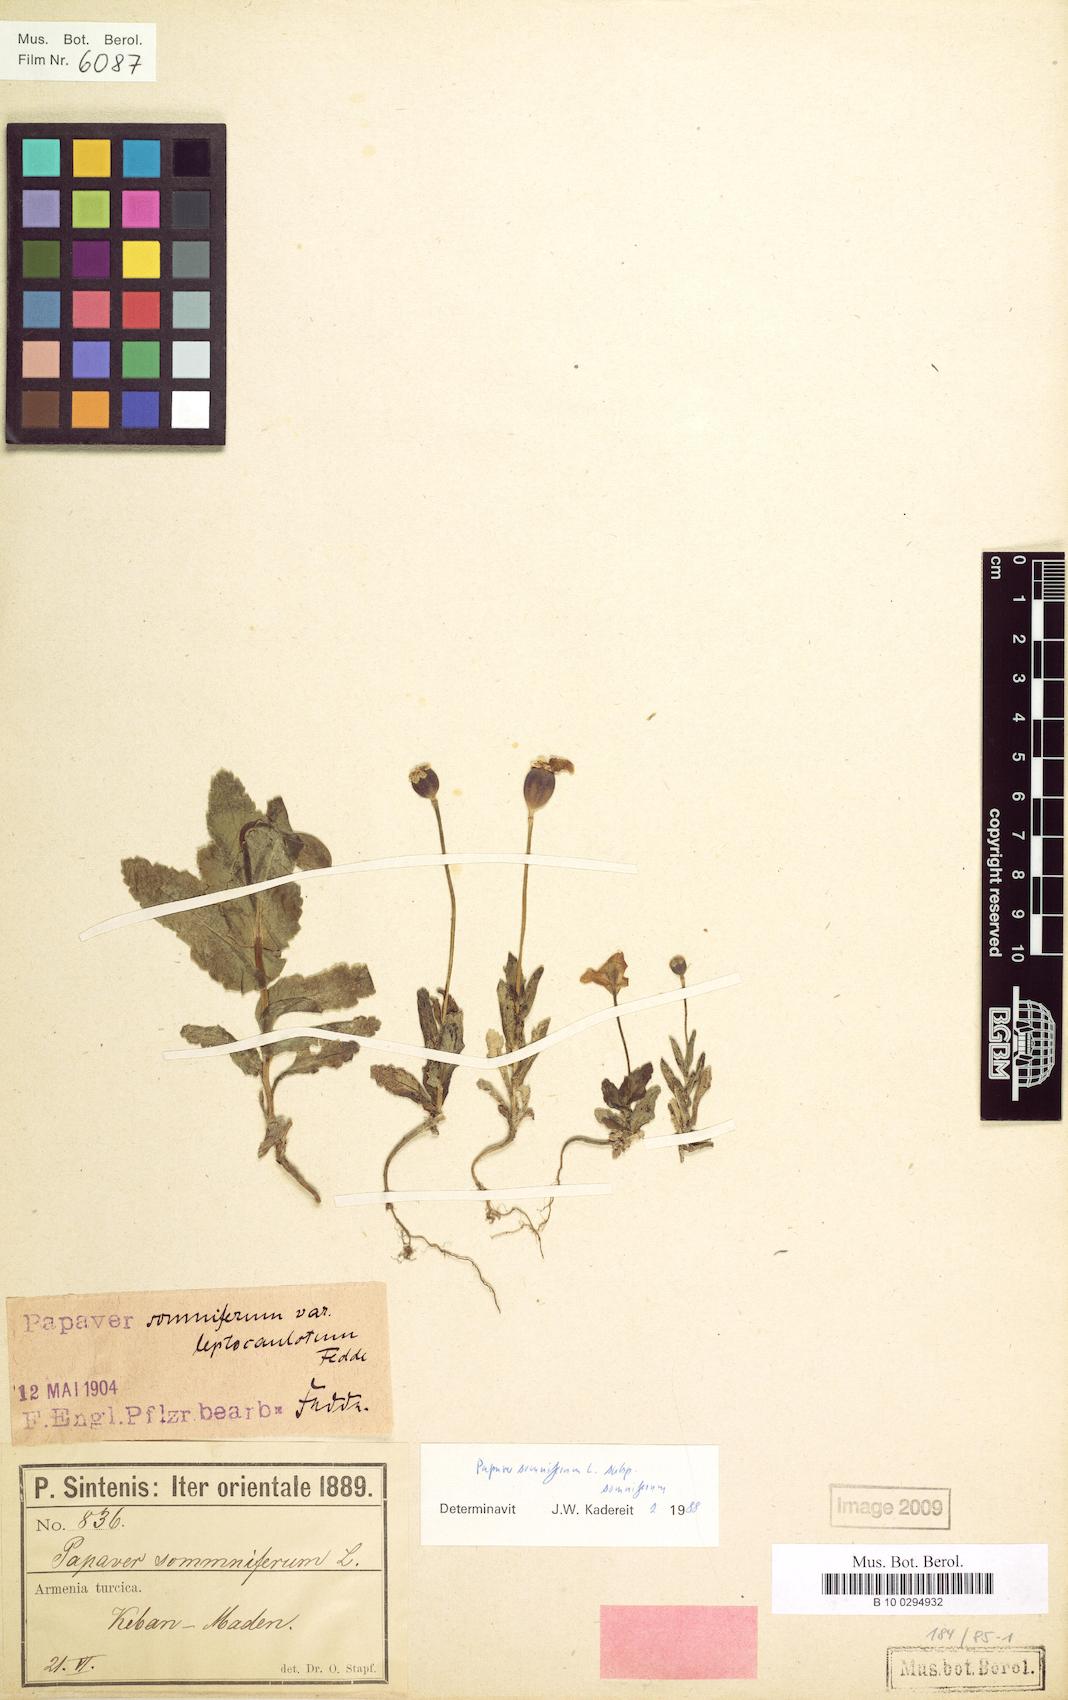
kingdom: Plantae
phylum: Tracheophyta
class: Magnoliopsida
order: Ranunculales
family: Papaveraceae
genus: Papaver
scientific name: Papaver somniferum
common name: Opium poppy
